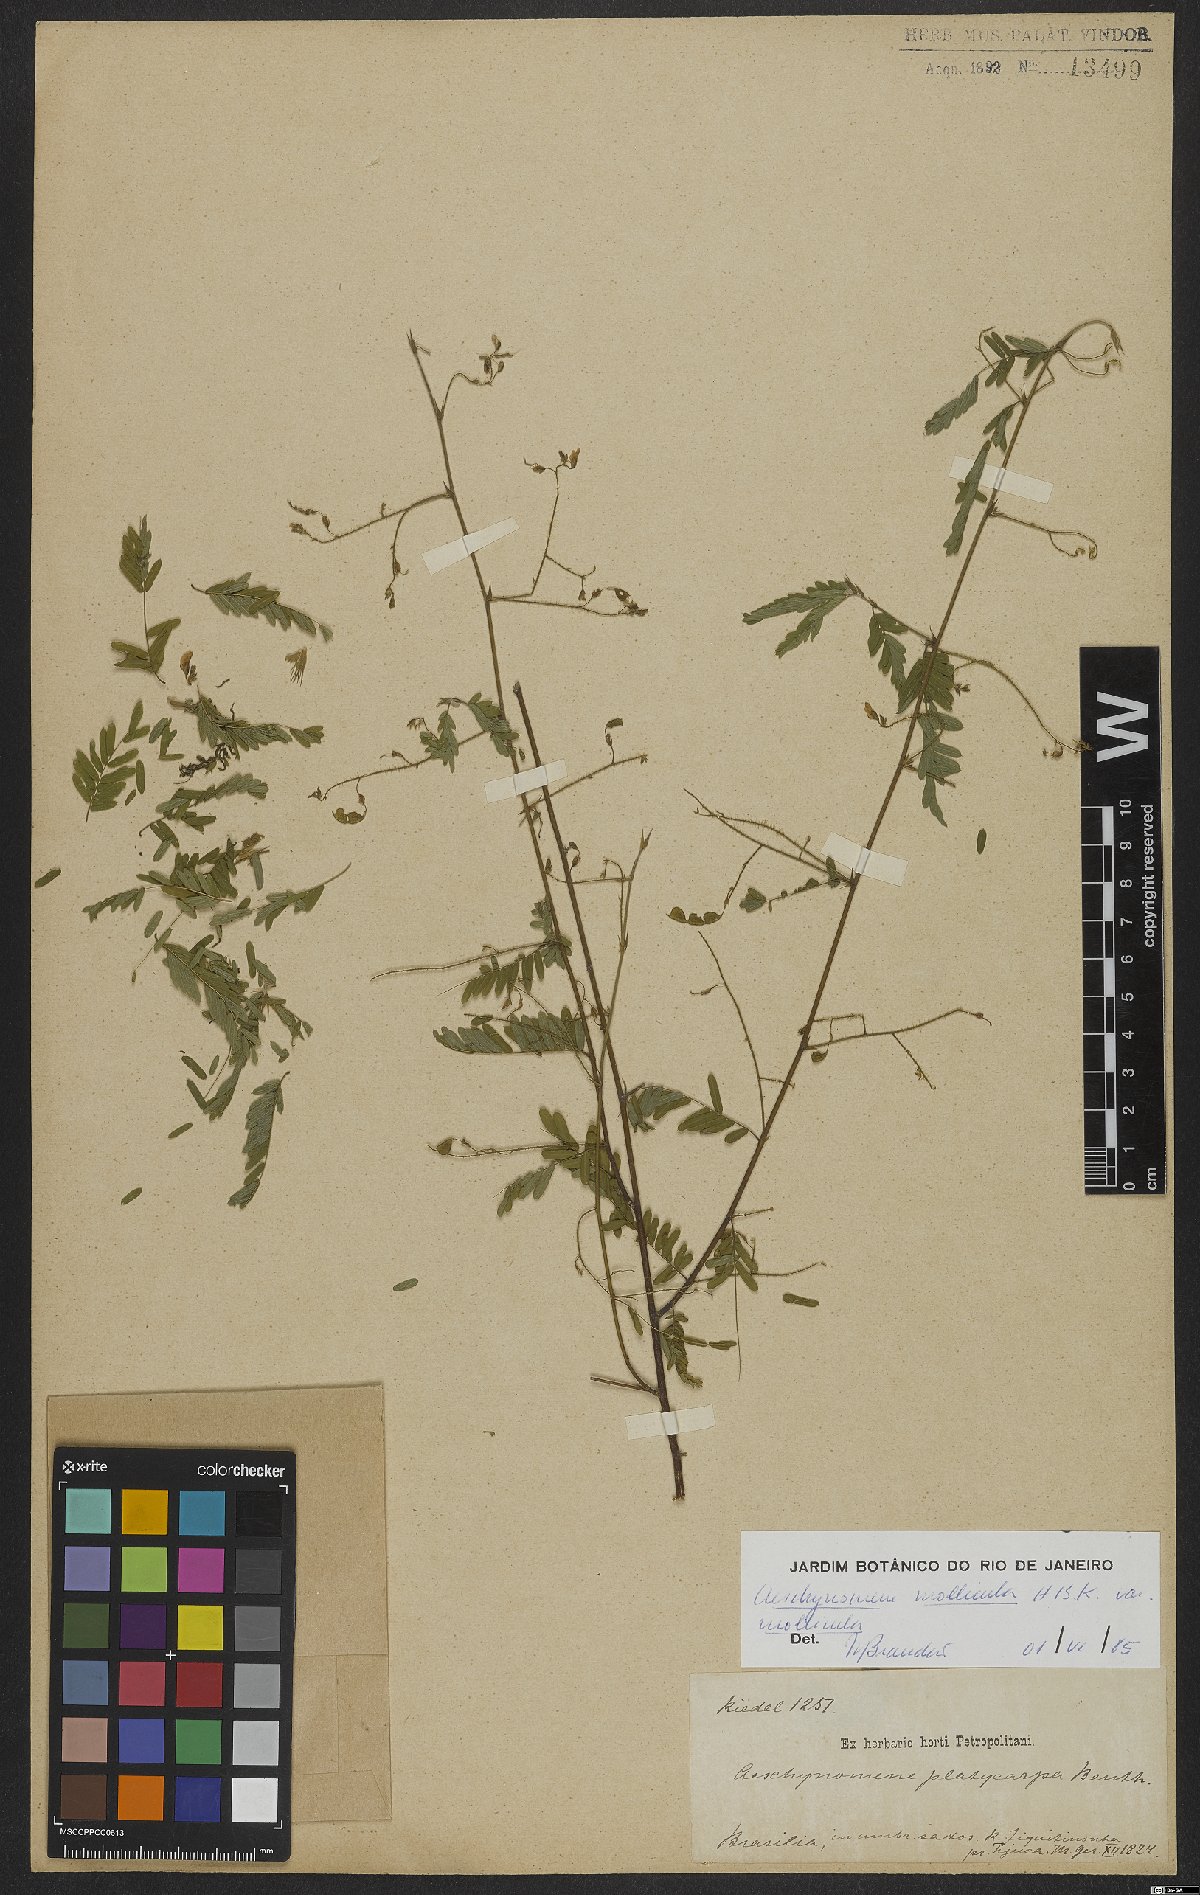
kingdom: Plantae
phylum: Tracheophyta
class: Magnoliopsida
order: Fabales
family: Fabaceae
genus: Ctenodon
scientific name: Ctenodon molliculus
